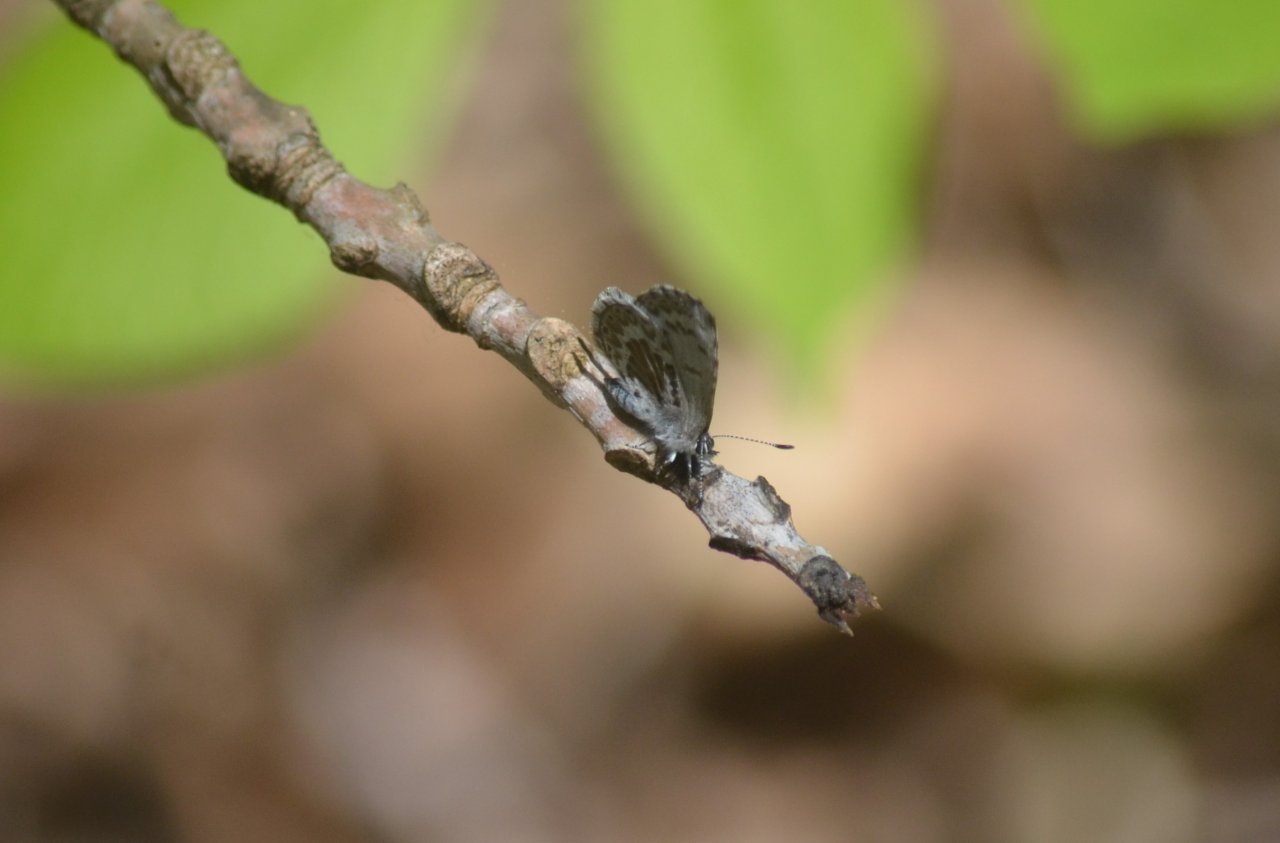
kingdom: Animalia
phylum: Arthropoda
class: Insecta
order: Lepidoptera
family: Lycaenidae
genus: Celastrina
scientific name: Celastrina lucia
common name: Northern Spring Azure
